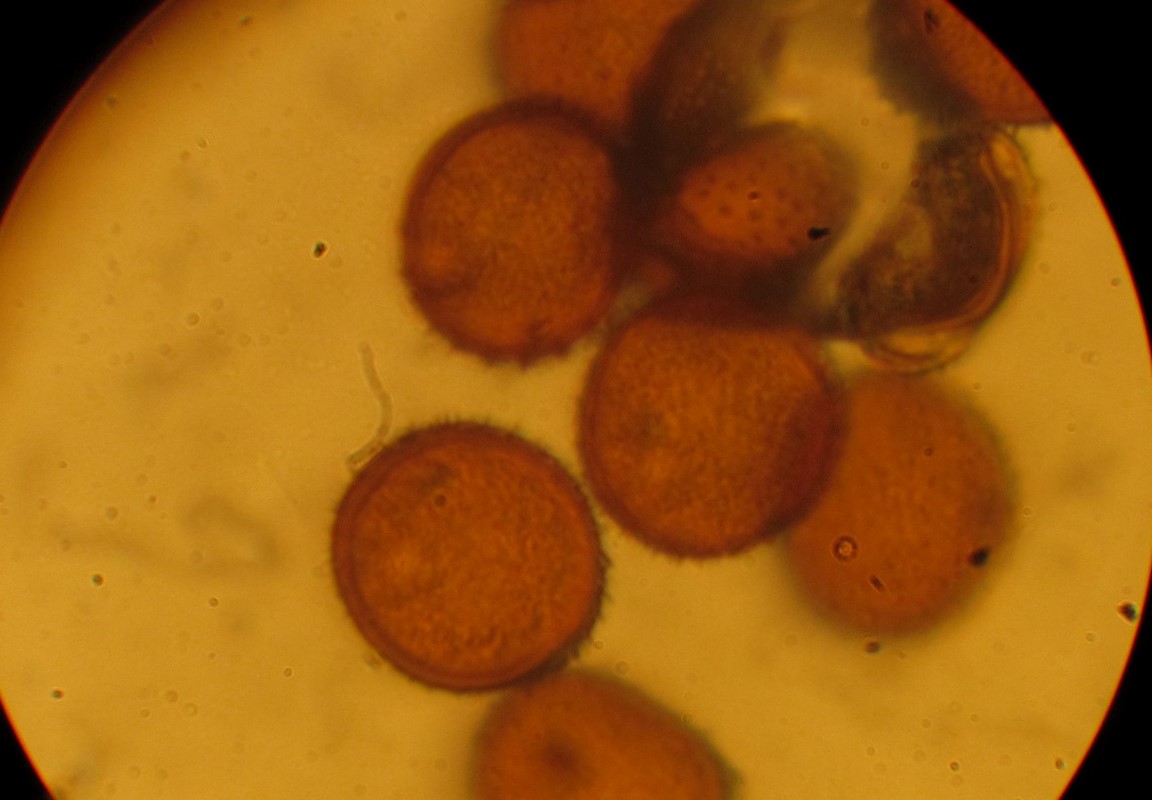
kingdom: Fungi
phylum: Basidiomycota
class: Pucciniomycetes
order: Pucciniales
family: Pucciniaceae
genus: Puccinia
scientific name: Puccinia variabilis
